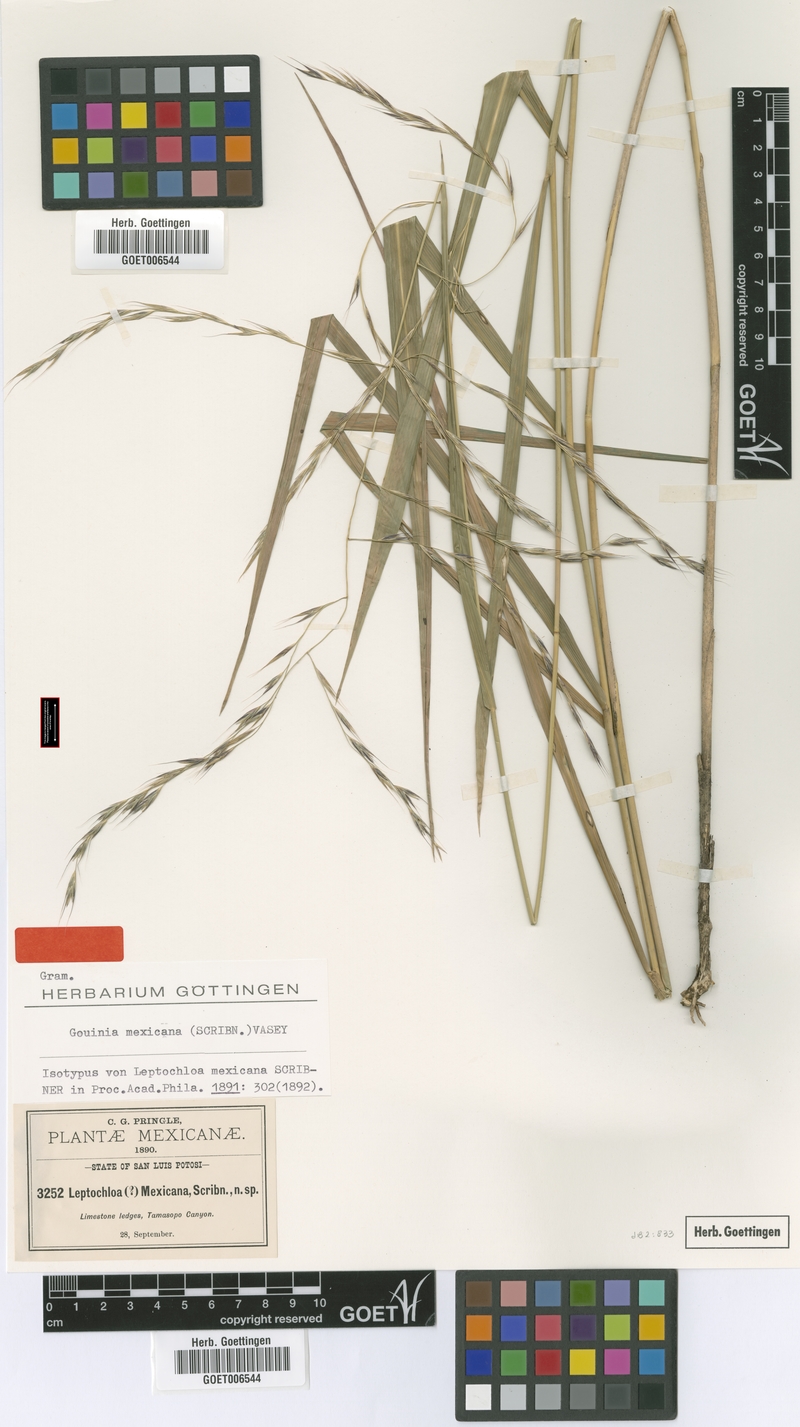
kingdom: Plantae
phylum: Tracheophyta
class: Liliopsida
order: Poales
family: Poaceae
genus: Gouinia
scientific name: Gouinia mexicana
